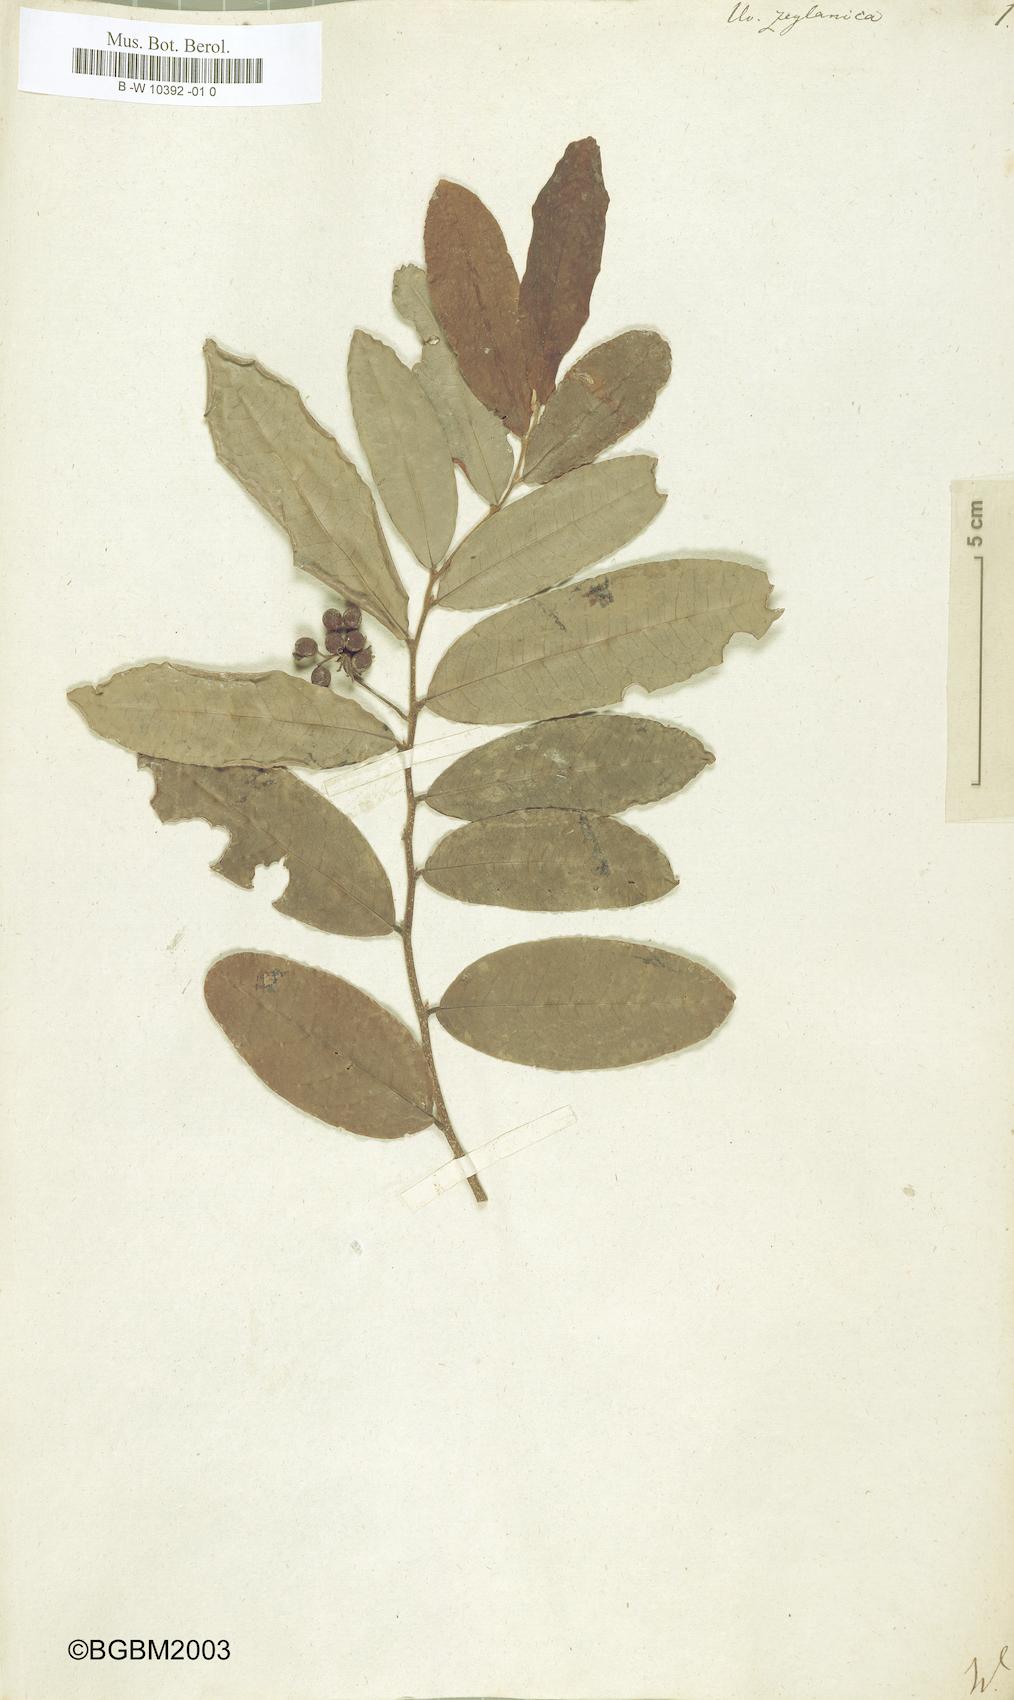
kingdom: Plantae
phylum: Tracheophyta
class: Magnoliopsida
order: Magnoliales
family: Annonaceae
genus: Uvaria
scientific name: Uvaria zeylanica
